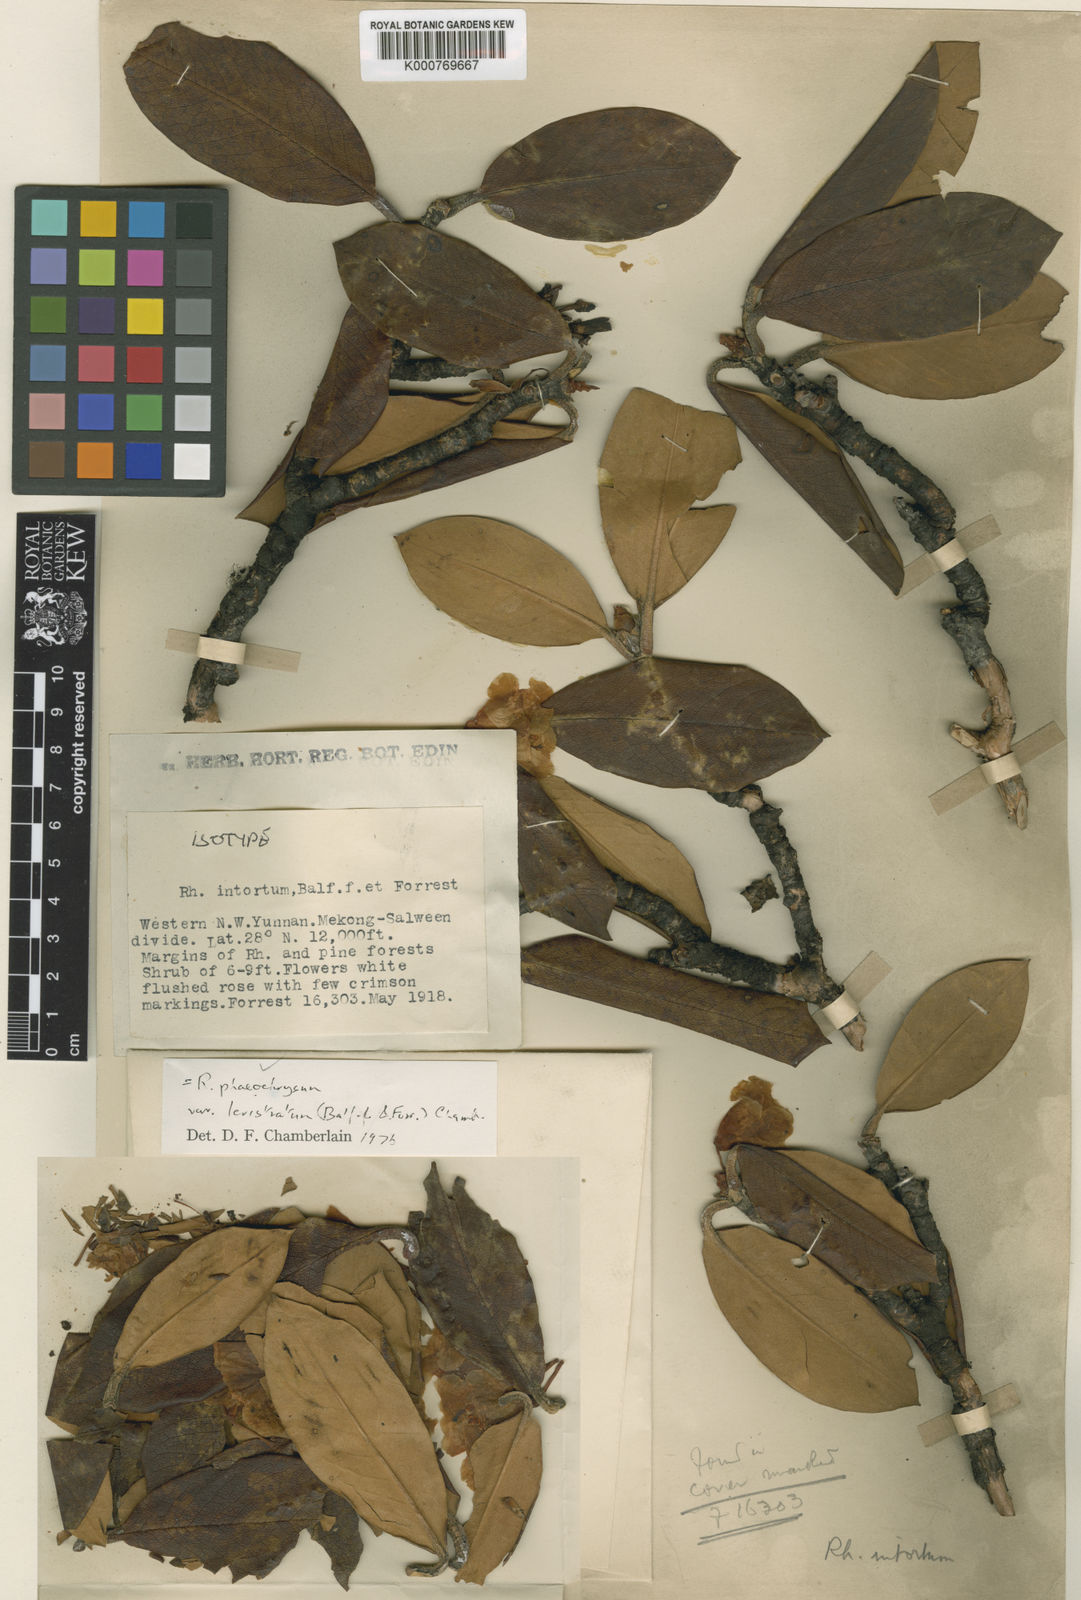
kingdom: Plantae
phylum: Tracheophyta
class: Magnoliopsida
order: Ericales
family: Ericaceae
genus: Rhododendron
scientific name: Rhododendron phaeochrysum
